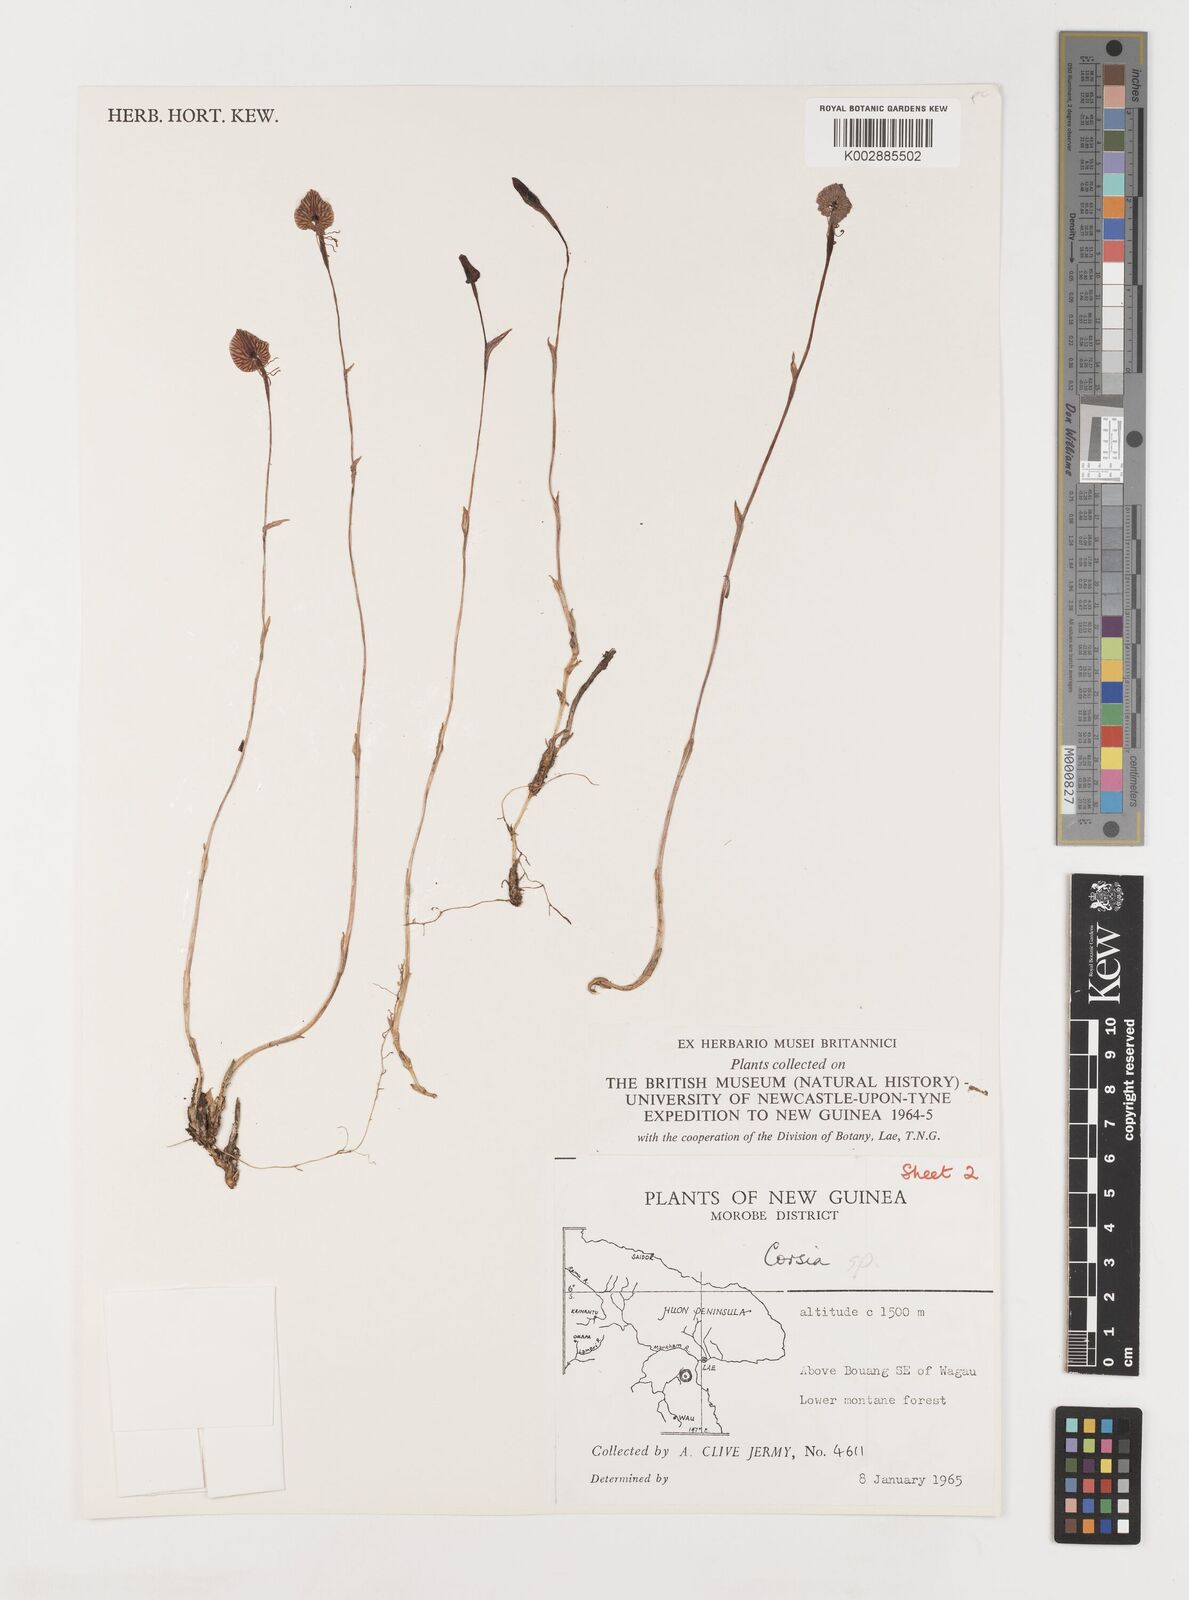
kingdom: Plantae
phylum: Tracheophyta
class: Liliopsida
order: Liliales
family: Corsiaceae
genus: Corsia
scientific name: Corsia
